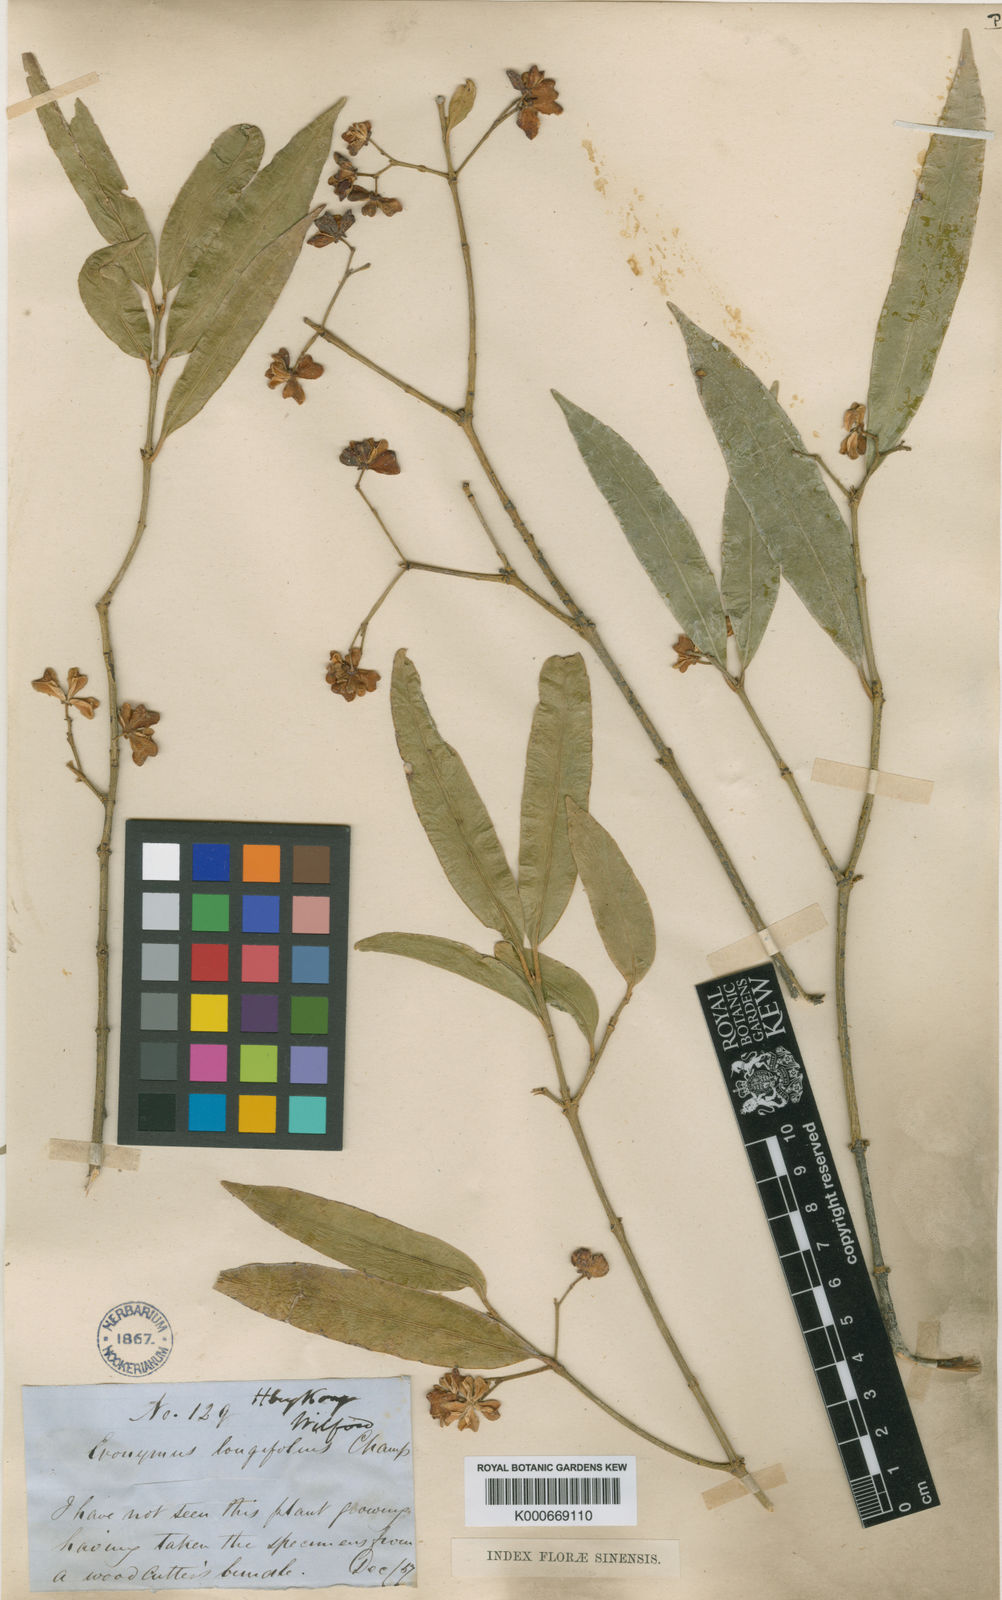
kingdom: Plantae
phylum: Tracheophyta
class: Magnoliopsida
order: Celastrales
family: Celastraceae
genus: Euonymus
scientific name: Euonymus tsoi
